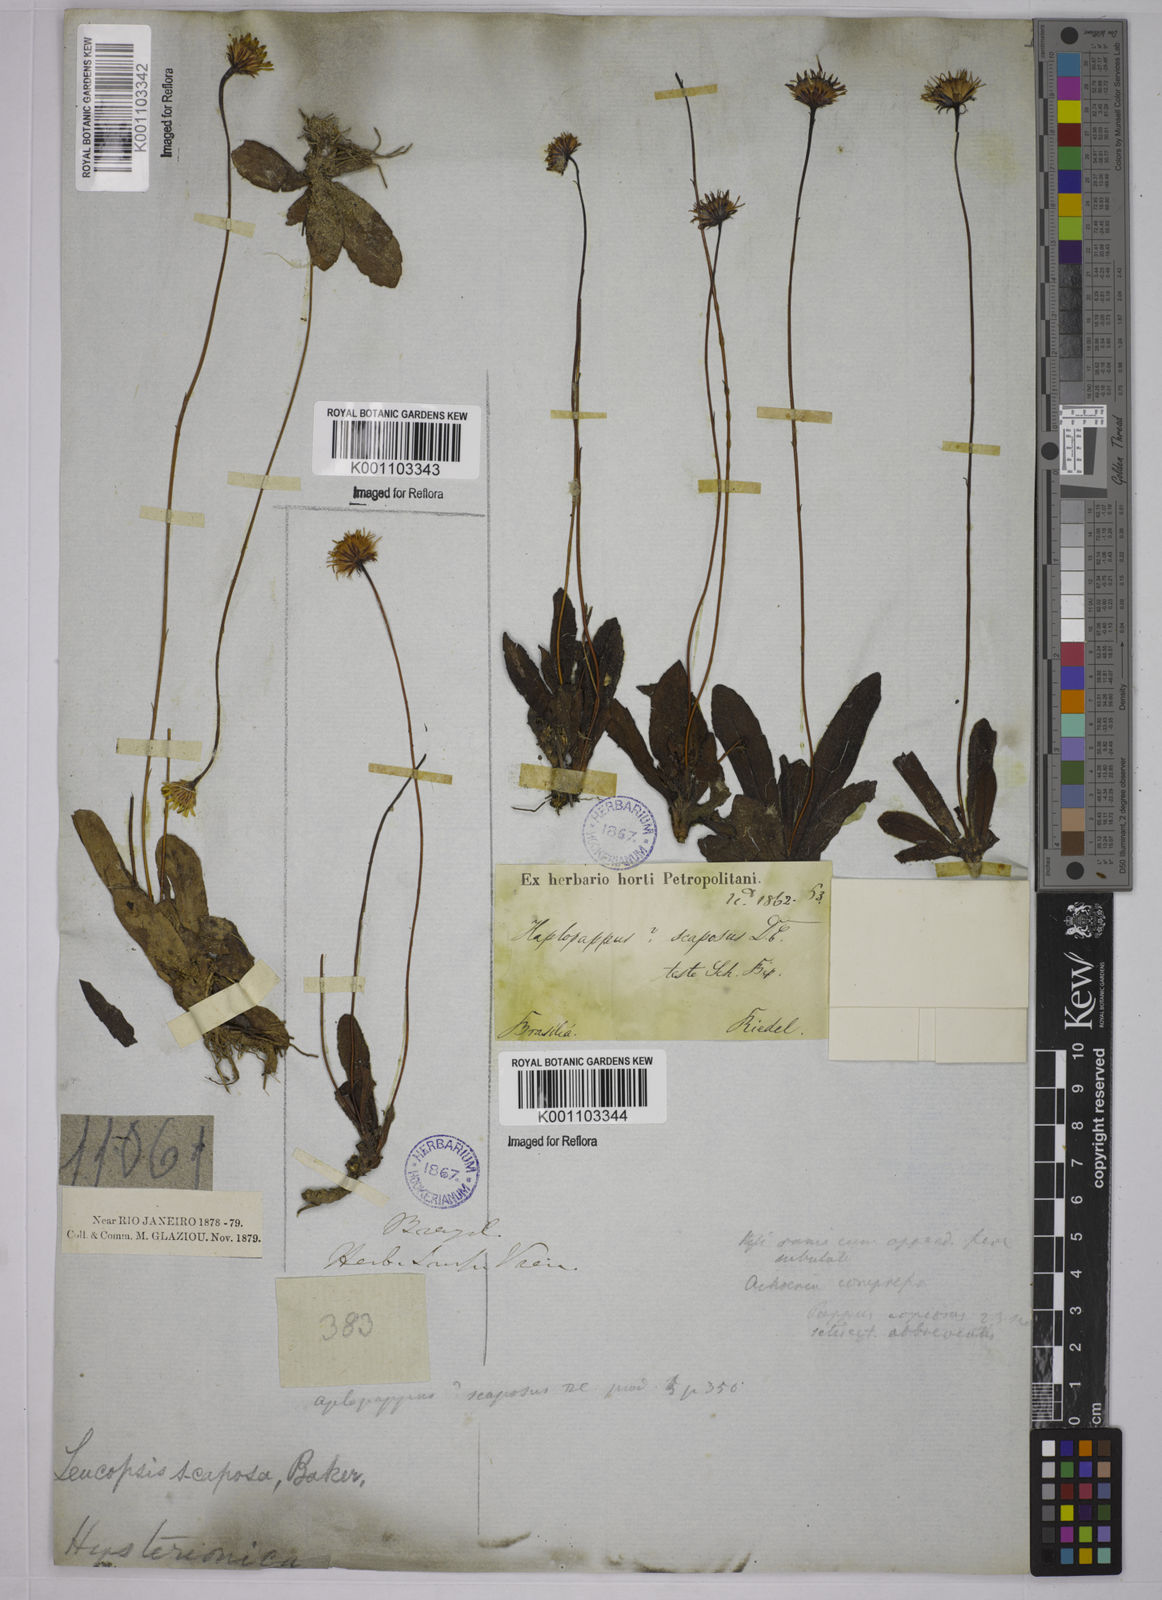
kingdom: Plantae
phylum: Tracheophyta
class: Magnoliopsida
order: Asterales
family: Asteraceae
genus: Inulopsis
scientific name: Inulopsis scaposa
